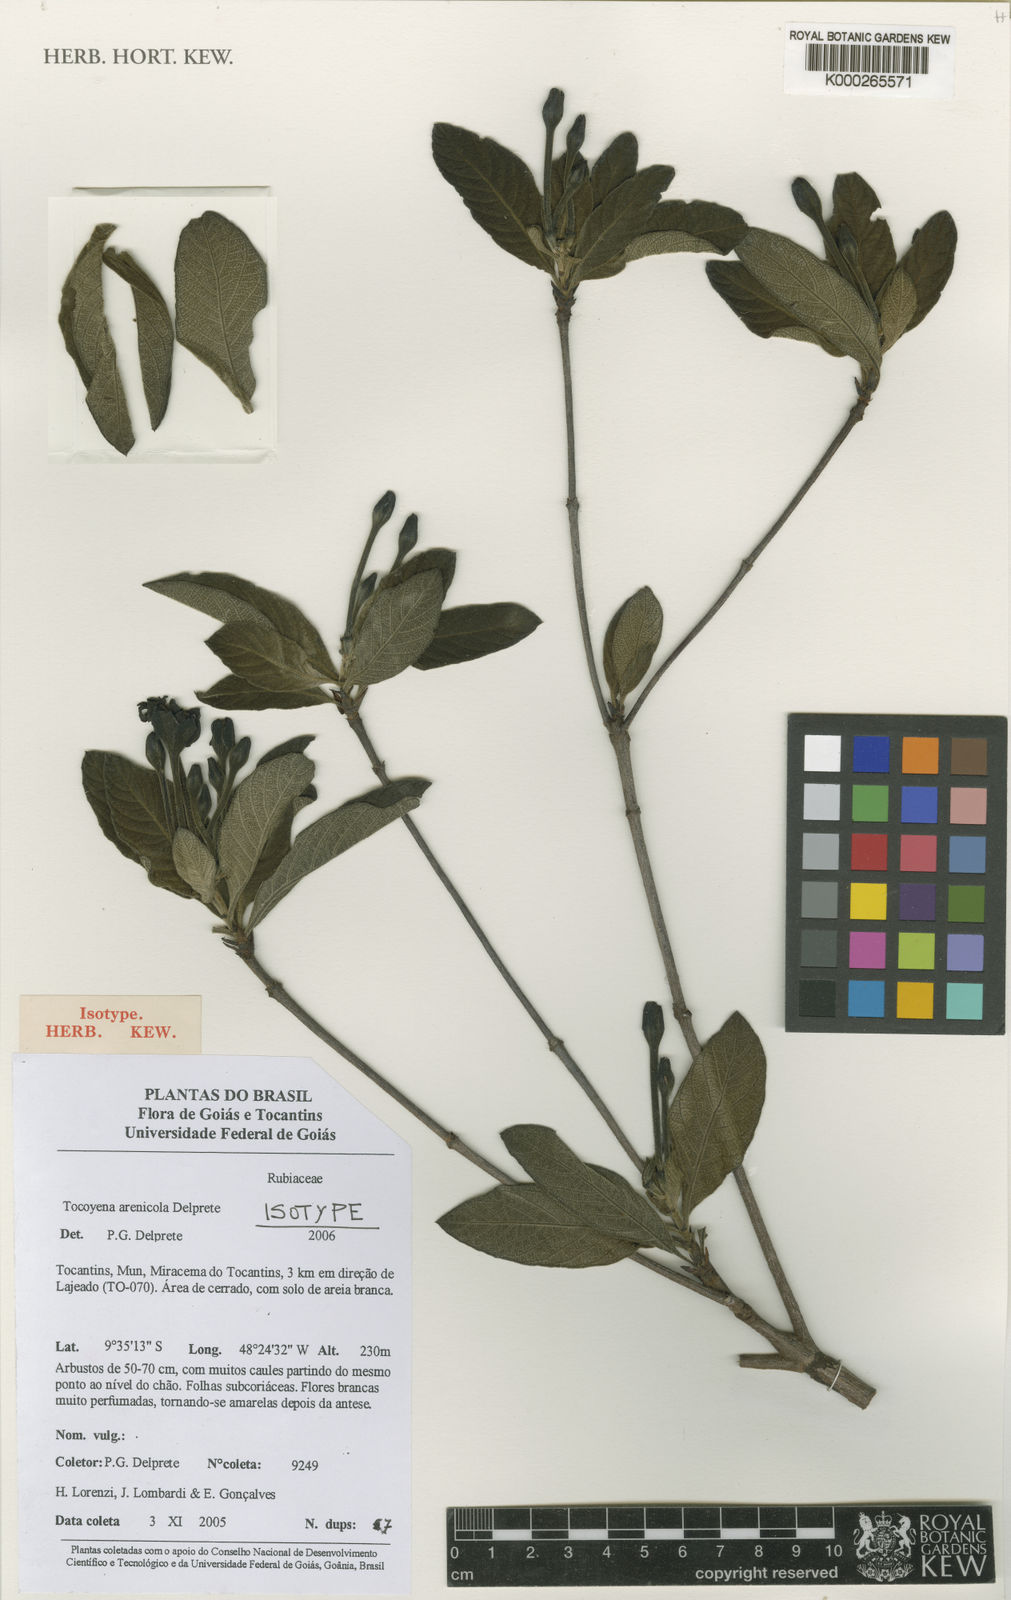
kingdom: Plantae
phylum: Tracheophyta
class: Magnoliopsida
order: Gentianales
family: Rubiaceae
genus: Tocoyena
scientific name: Tocoyena arenicola
